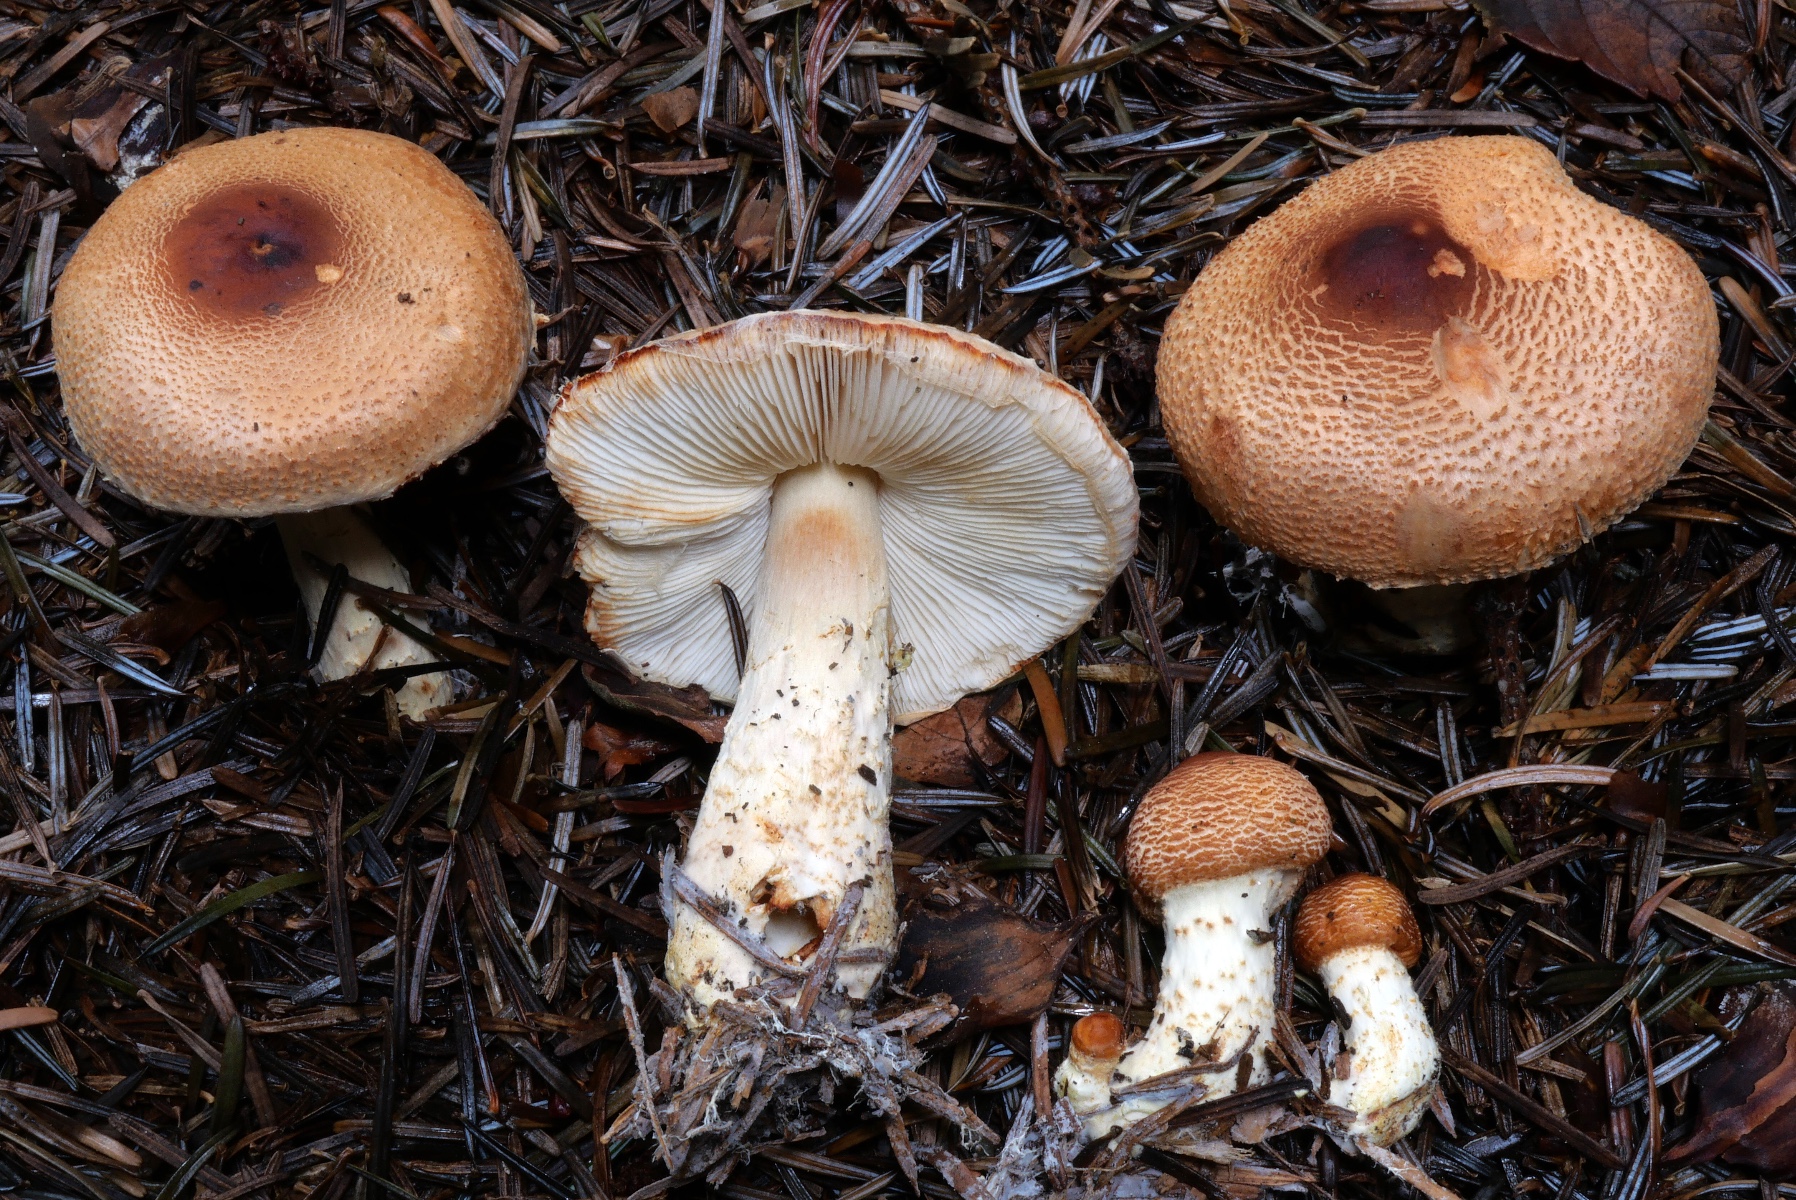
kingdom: Fungi
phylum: Basidiomycota
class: Agaricomycetes
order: Agaricales
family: Agaricaceae
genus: Lepiota
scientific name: Lepiota ochraceofulva
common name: sødtduftende parasolhat
